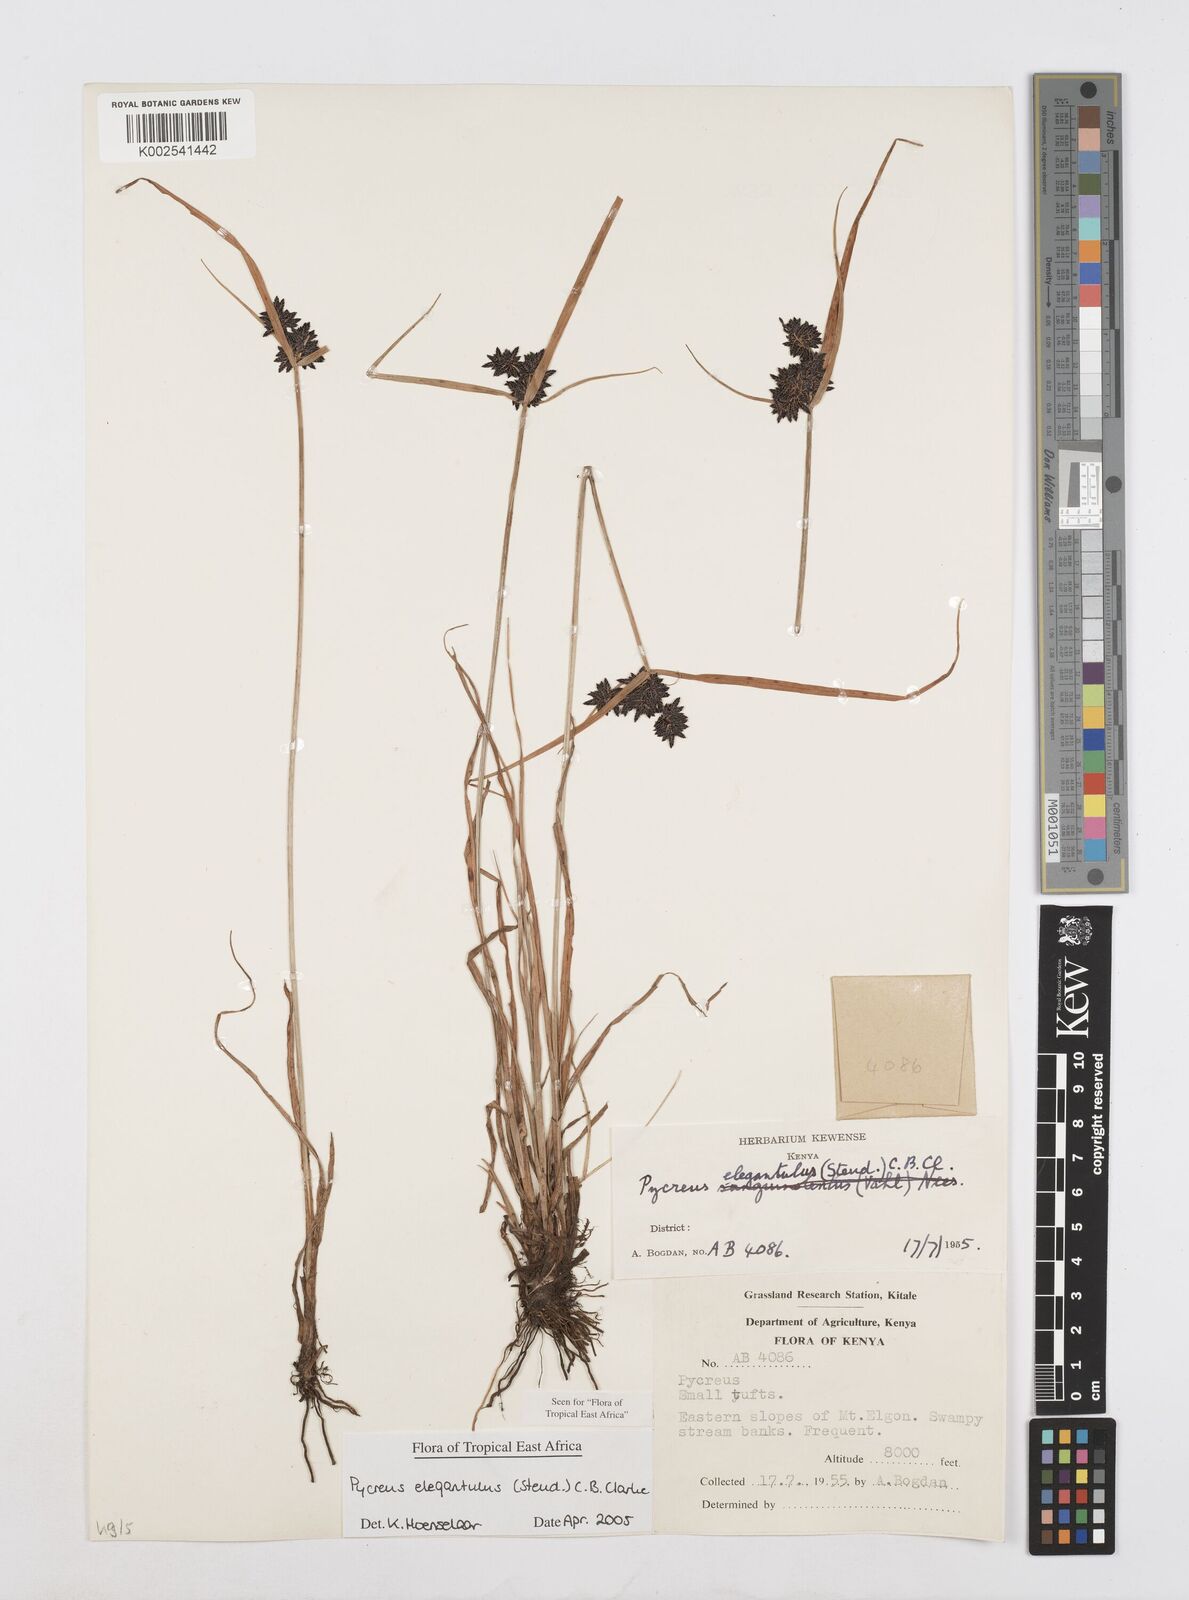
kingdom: Plantae
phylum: Tracheophyta
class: Liliopsida
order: Poales
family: Cyperaceae
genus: Cyperus
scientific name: Cyperus elegantulus
